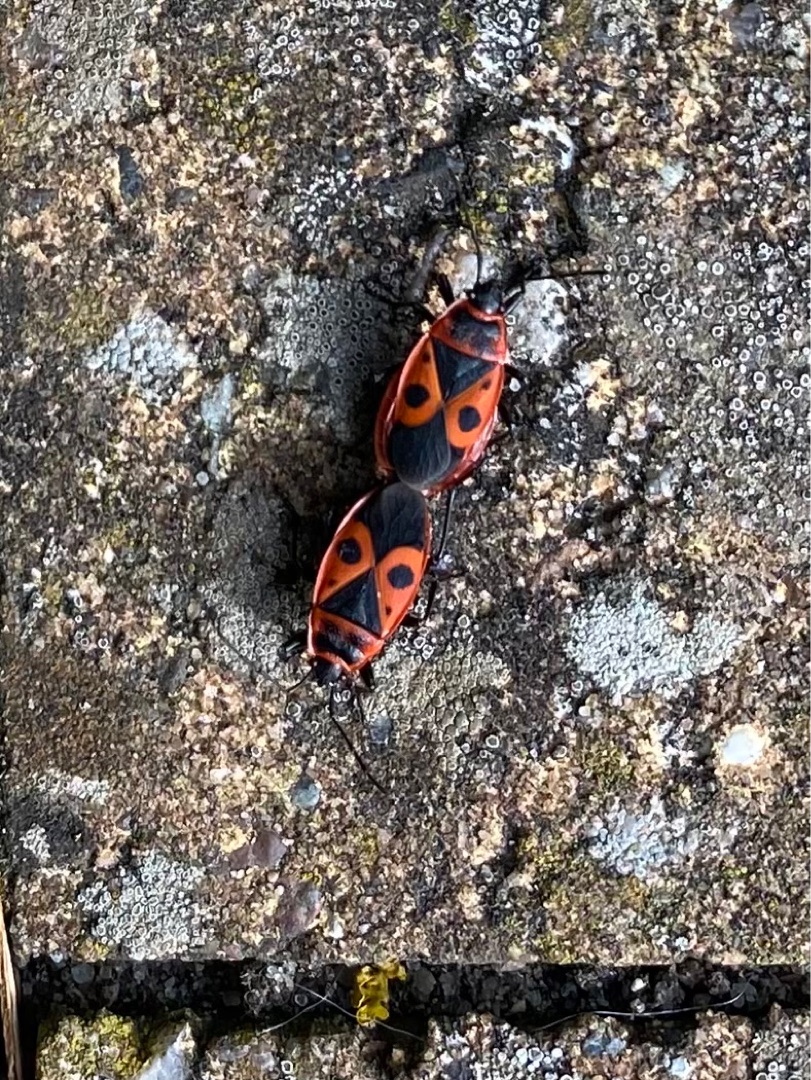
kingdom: Animalia
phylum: Arthropoda
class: Insecta
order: Hemiptera
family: Pyrrhocoridae
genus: Pyrrhocoris
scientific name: Pyrrhocoris apterus
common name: Ildtæge
